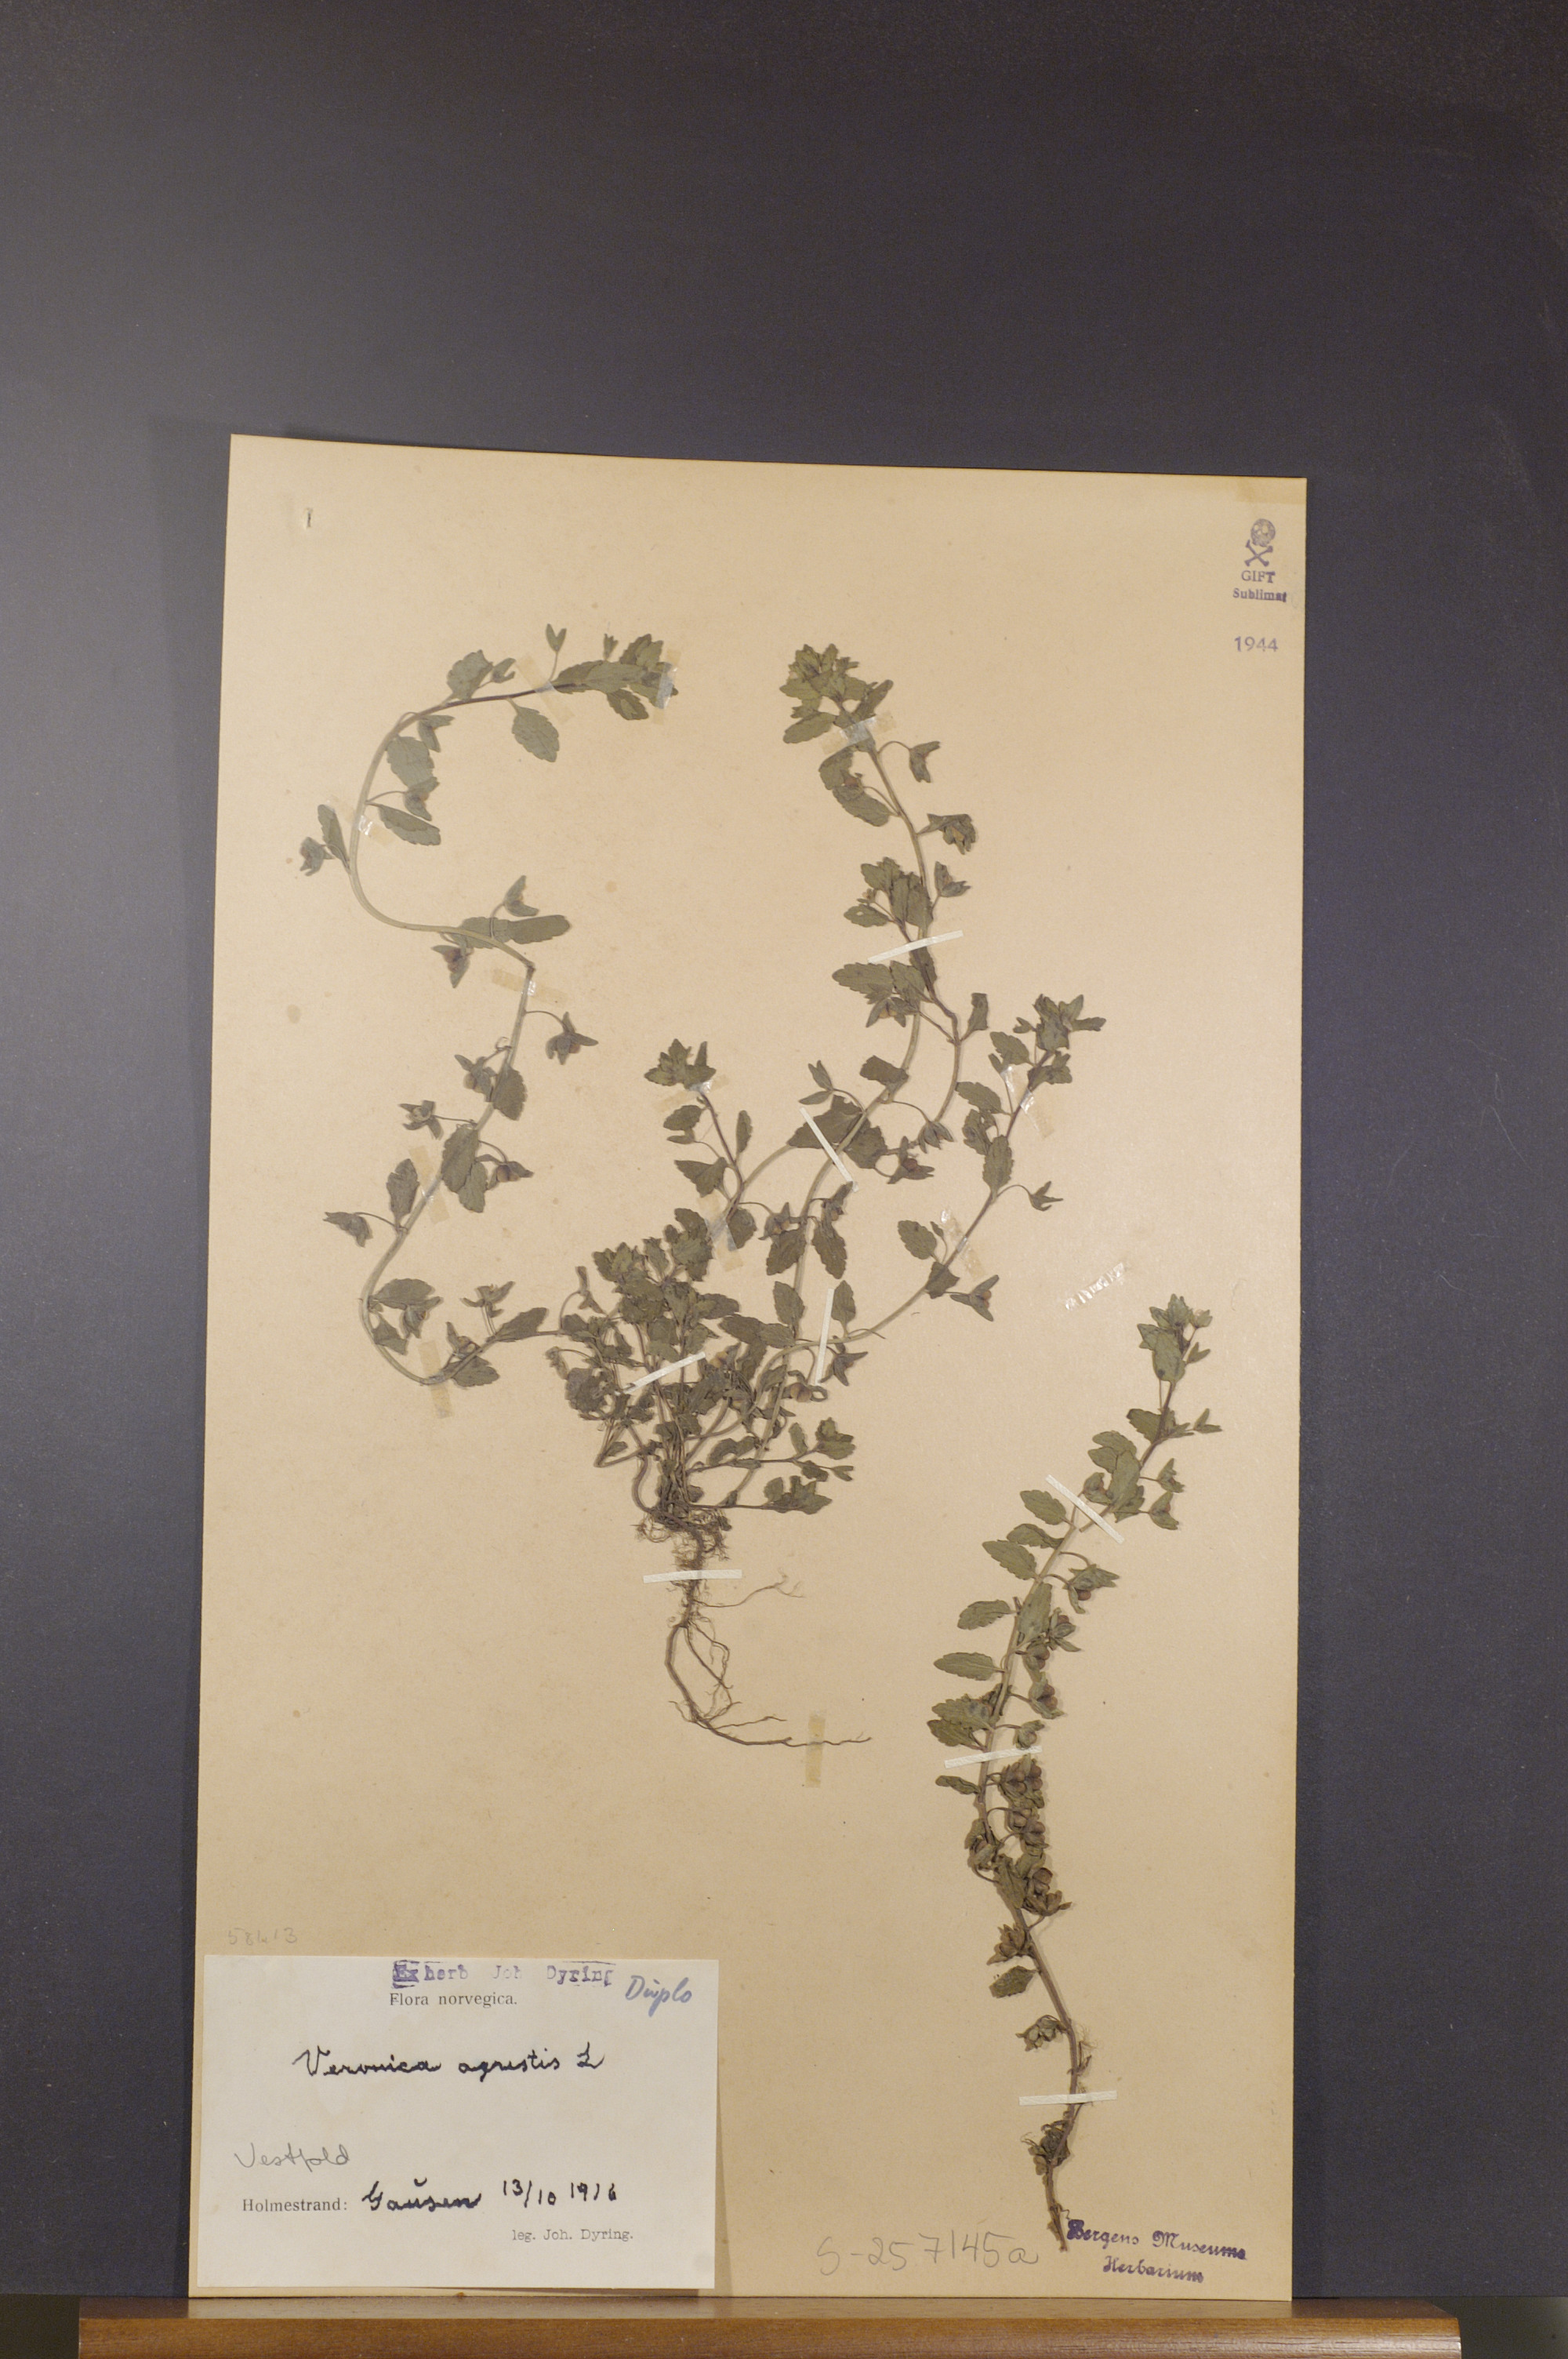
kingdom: Plantae
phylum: Tracheophyta
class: Magnoliopsida
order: Lamiales
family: Plantaginaceae
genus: Veronica
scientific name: Veronica agrestis
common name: Green field-speedwell
